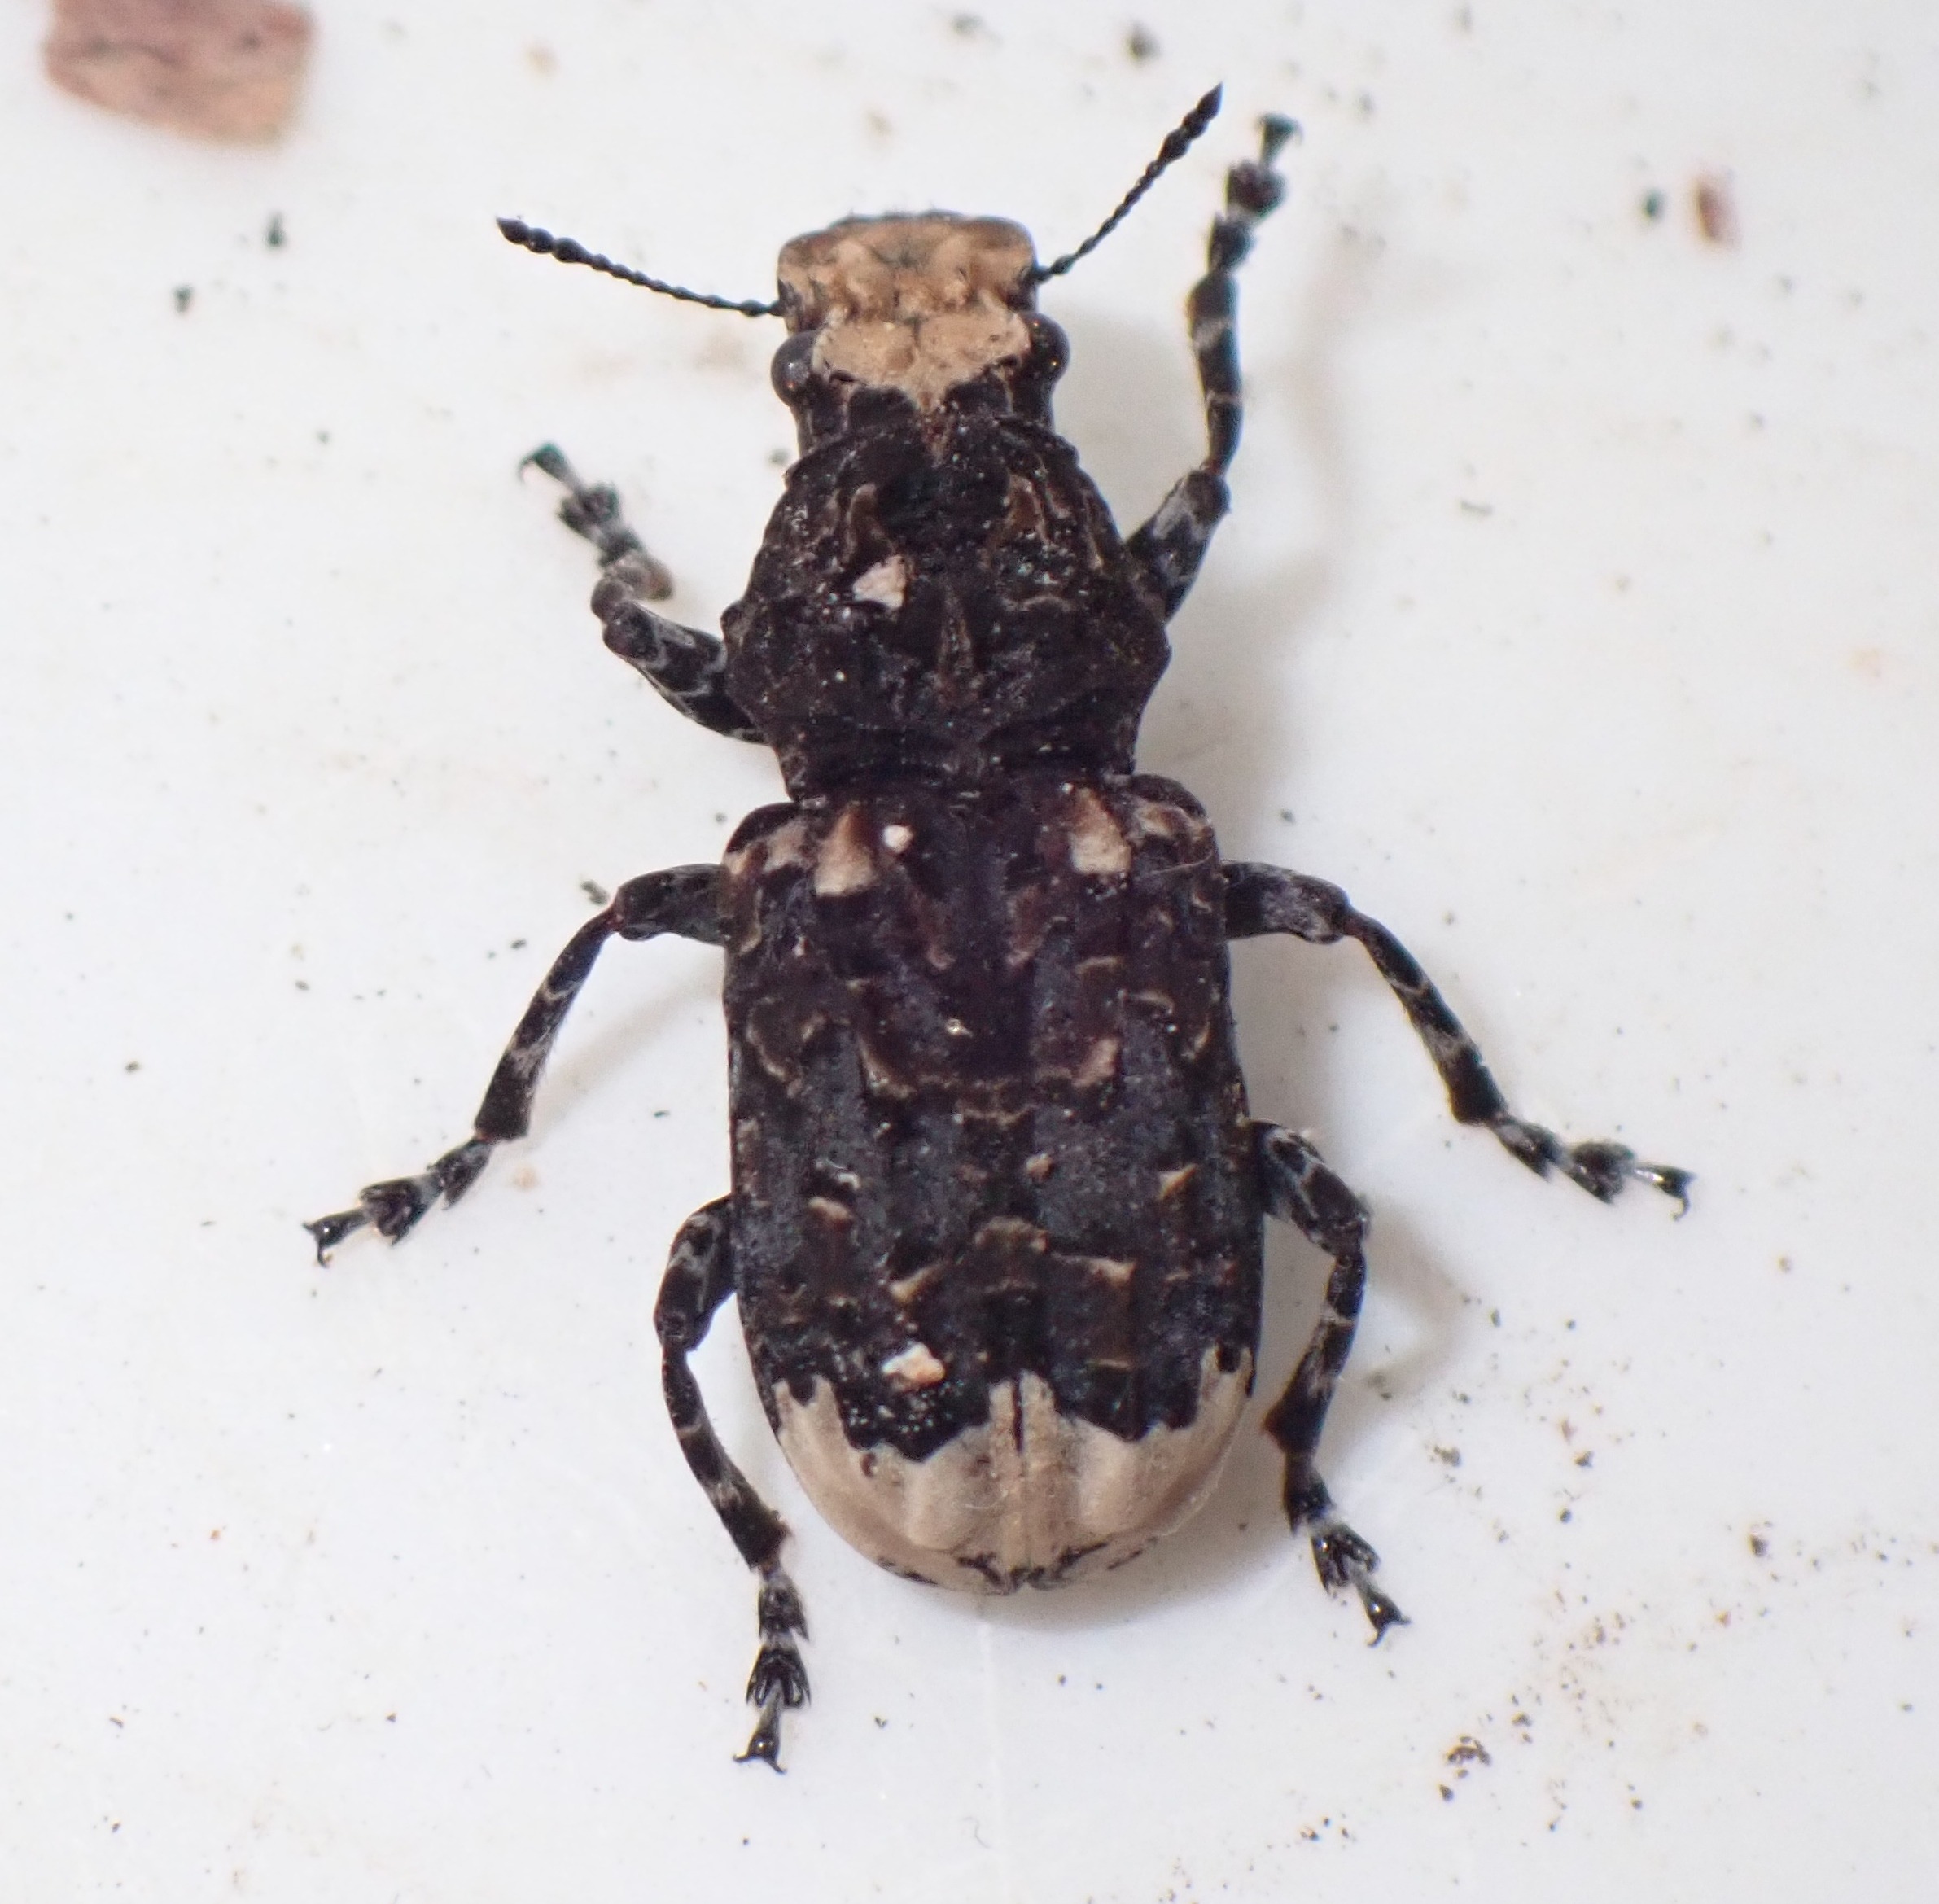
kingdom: Animalia
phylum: Arthropoda
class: Insecta
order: Coleoptera
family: Anthribidae
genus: Platyrhinus
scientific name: Platyrhinus resinosus
